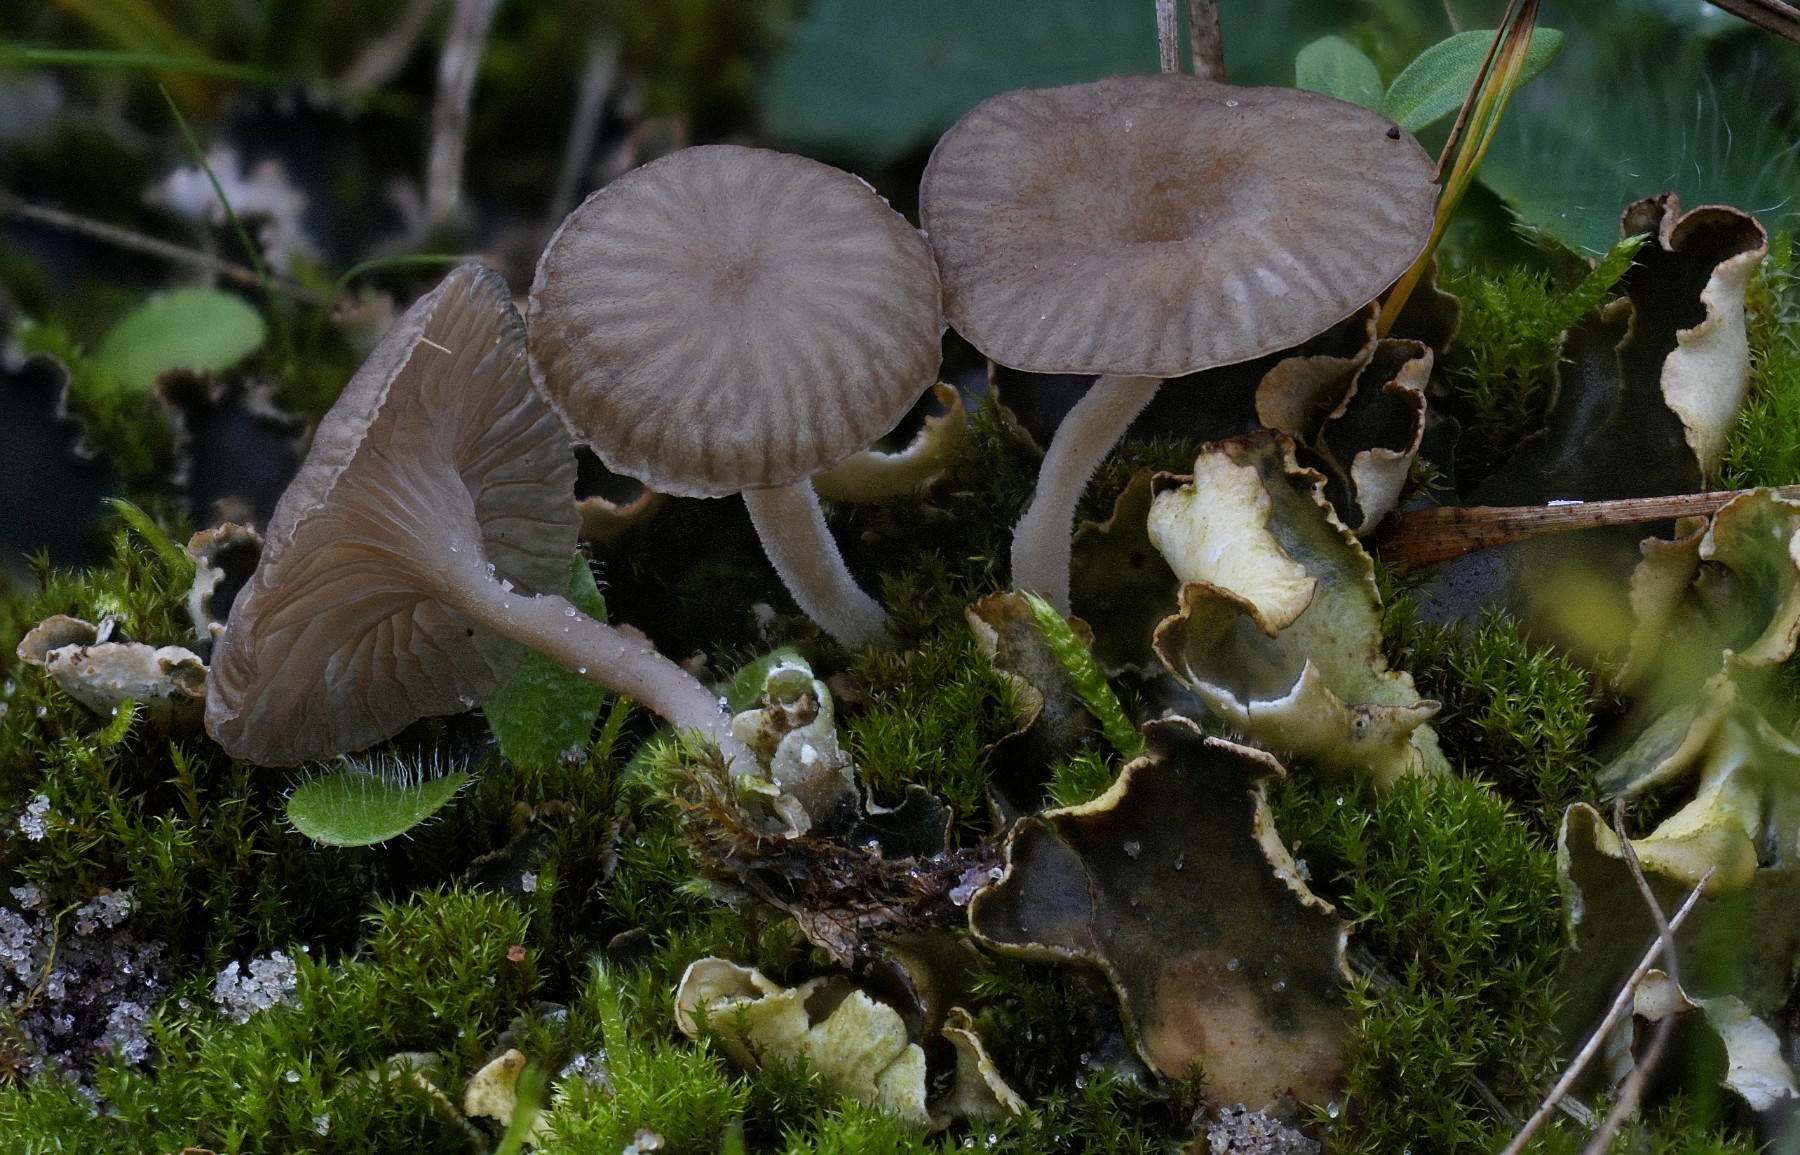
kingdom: Fungi
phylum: Basidiomycota
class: Agaricomycetes
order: Agaricales
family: Hygrophoraceae
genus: Arrhenia
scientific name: Arrhenia peltigerina
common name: skjoldlav-fontænehat
